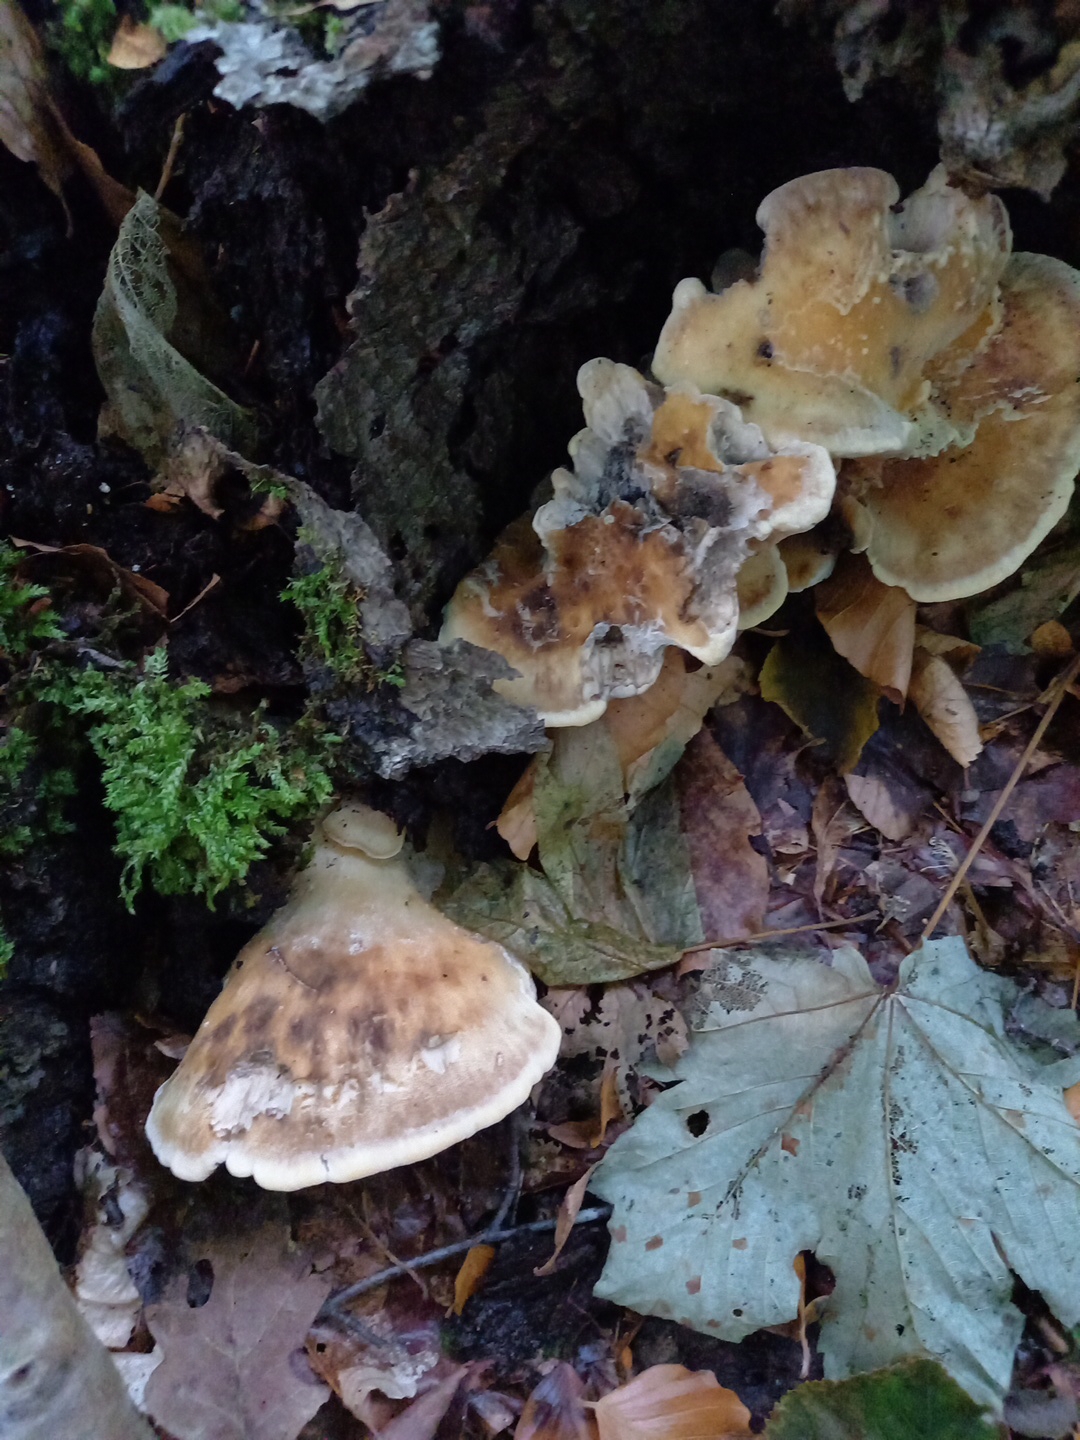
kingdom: Fungi
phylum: Basidiomycota
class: Agaricomycetes
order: Polyporales
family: Meripilaceae
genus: Meripilus
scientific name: Meripilus giganteus
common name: kæmpeporesvamp
